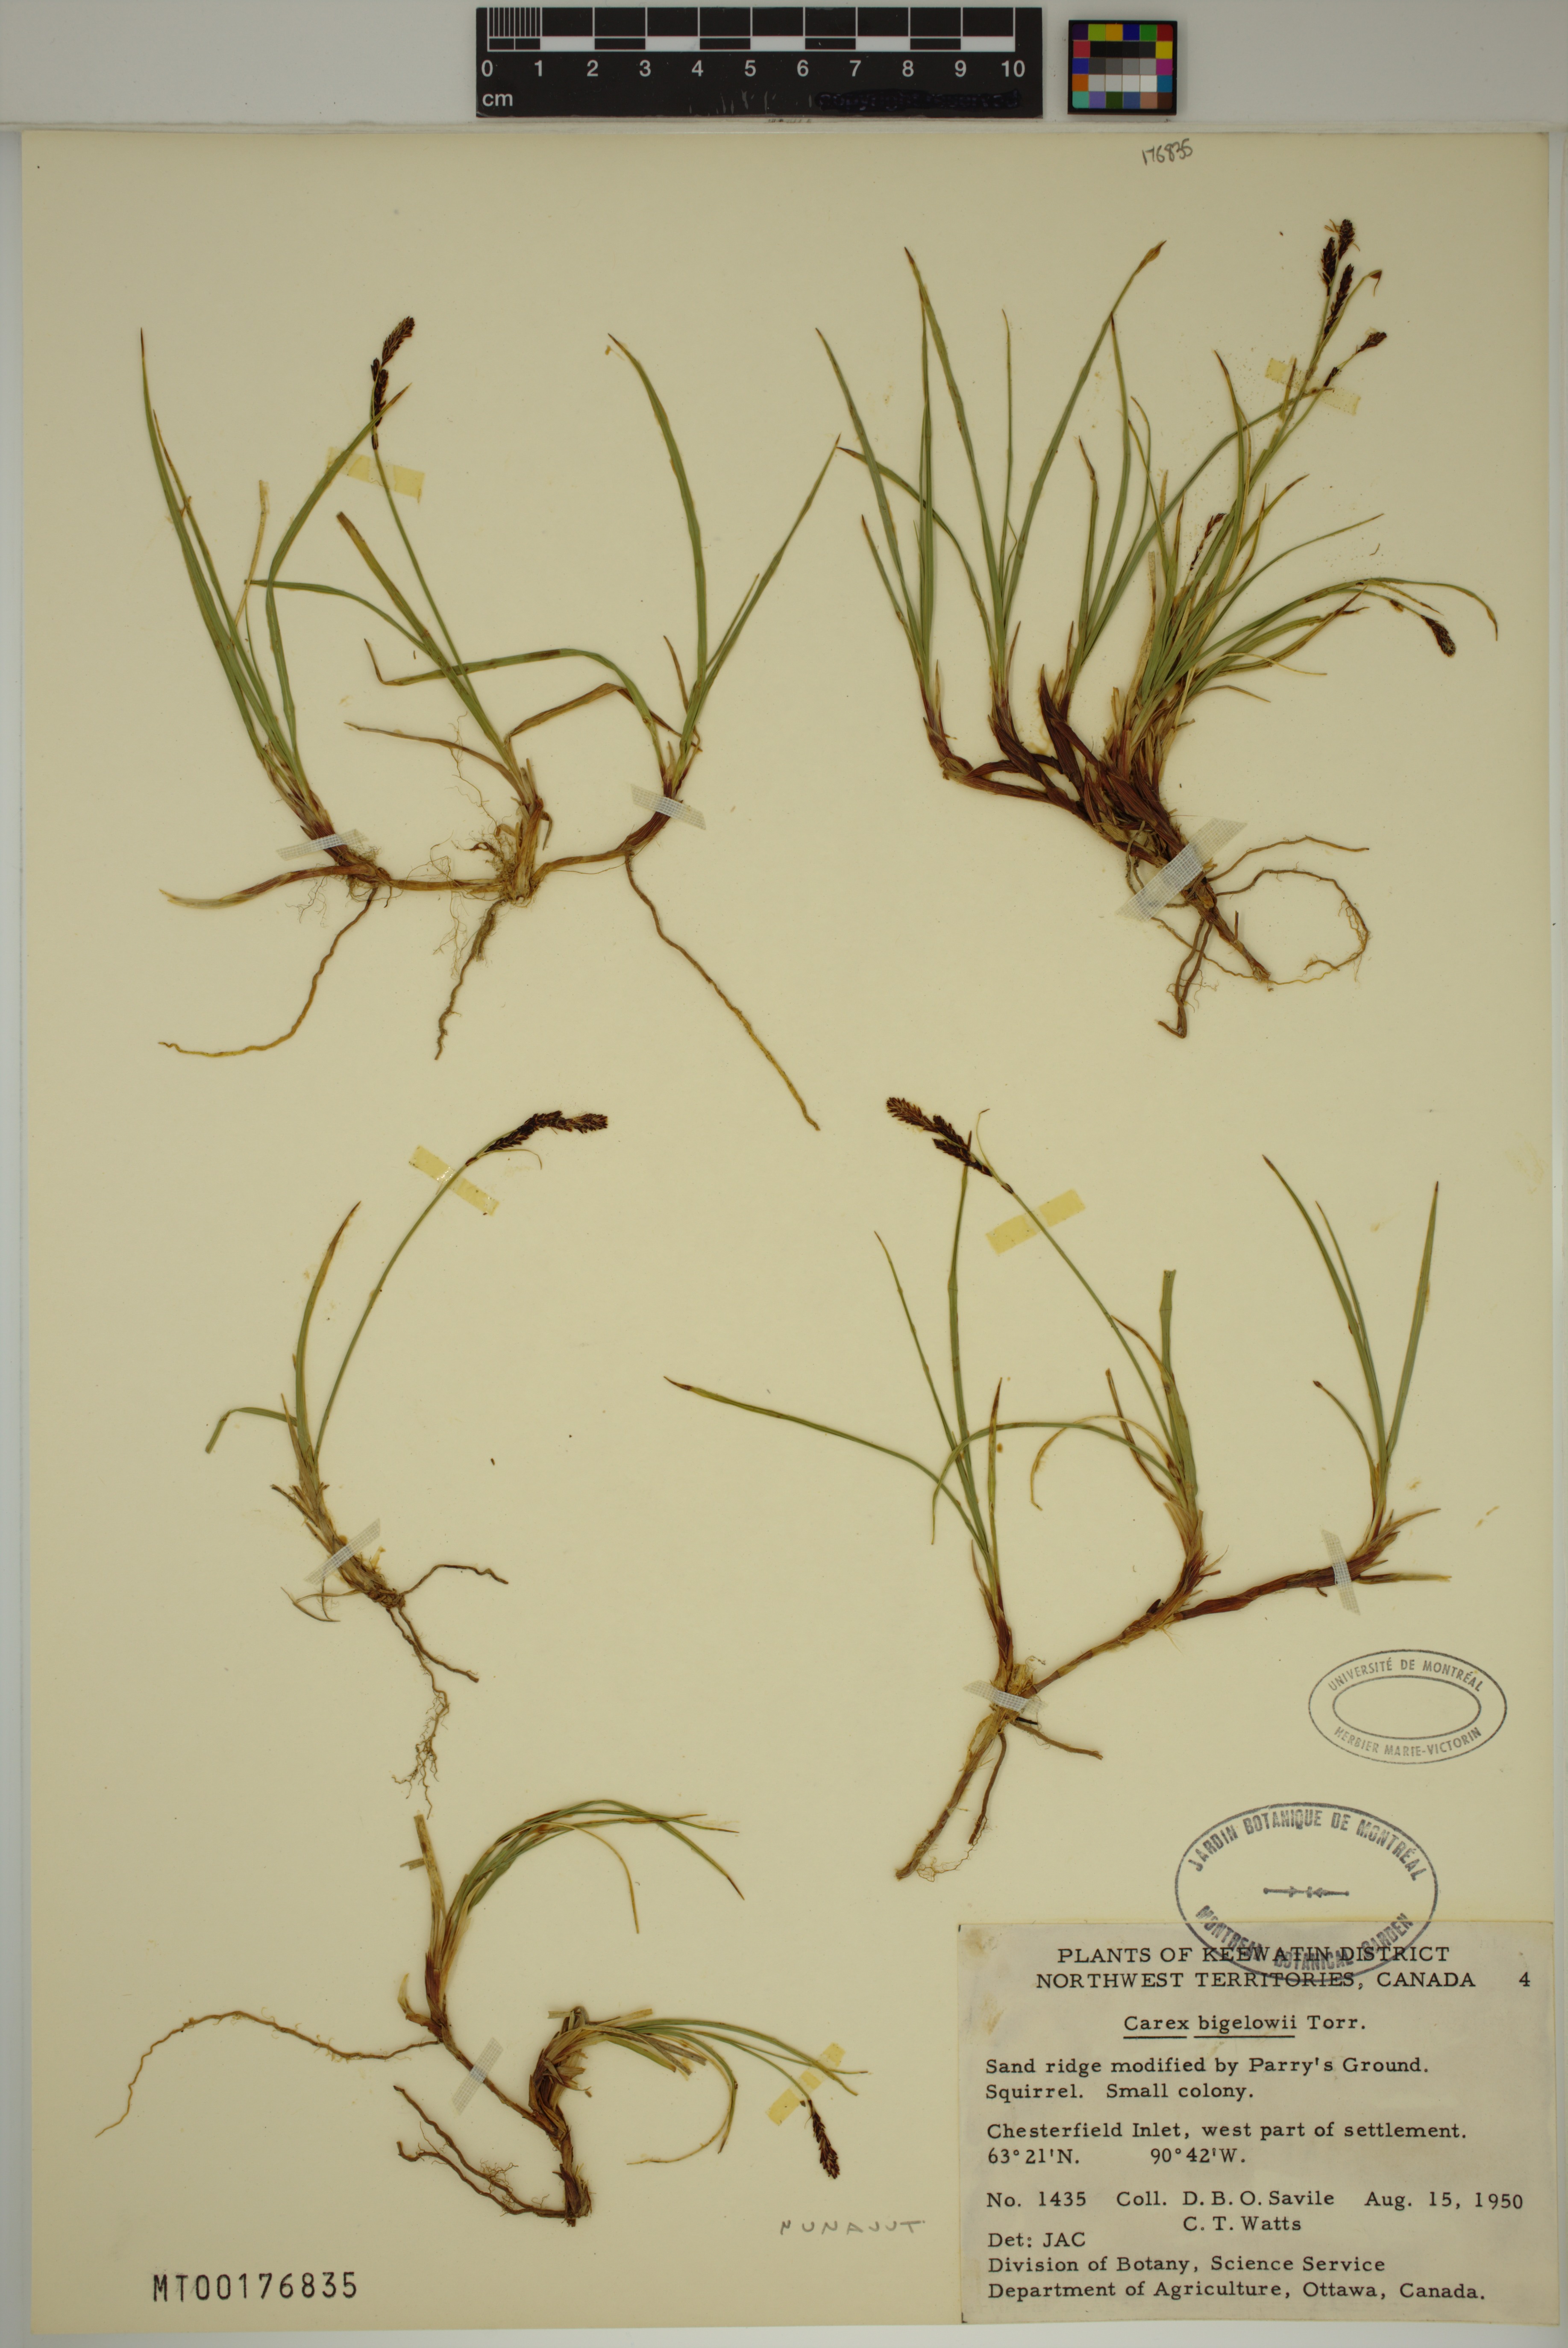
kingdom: Plantae
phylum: Tracheophyta
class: Liliopsida
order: Poales
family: Cyperaceae
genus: Carex
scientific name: Carex bigelowii
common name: Stiff sedge
